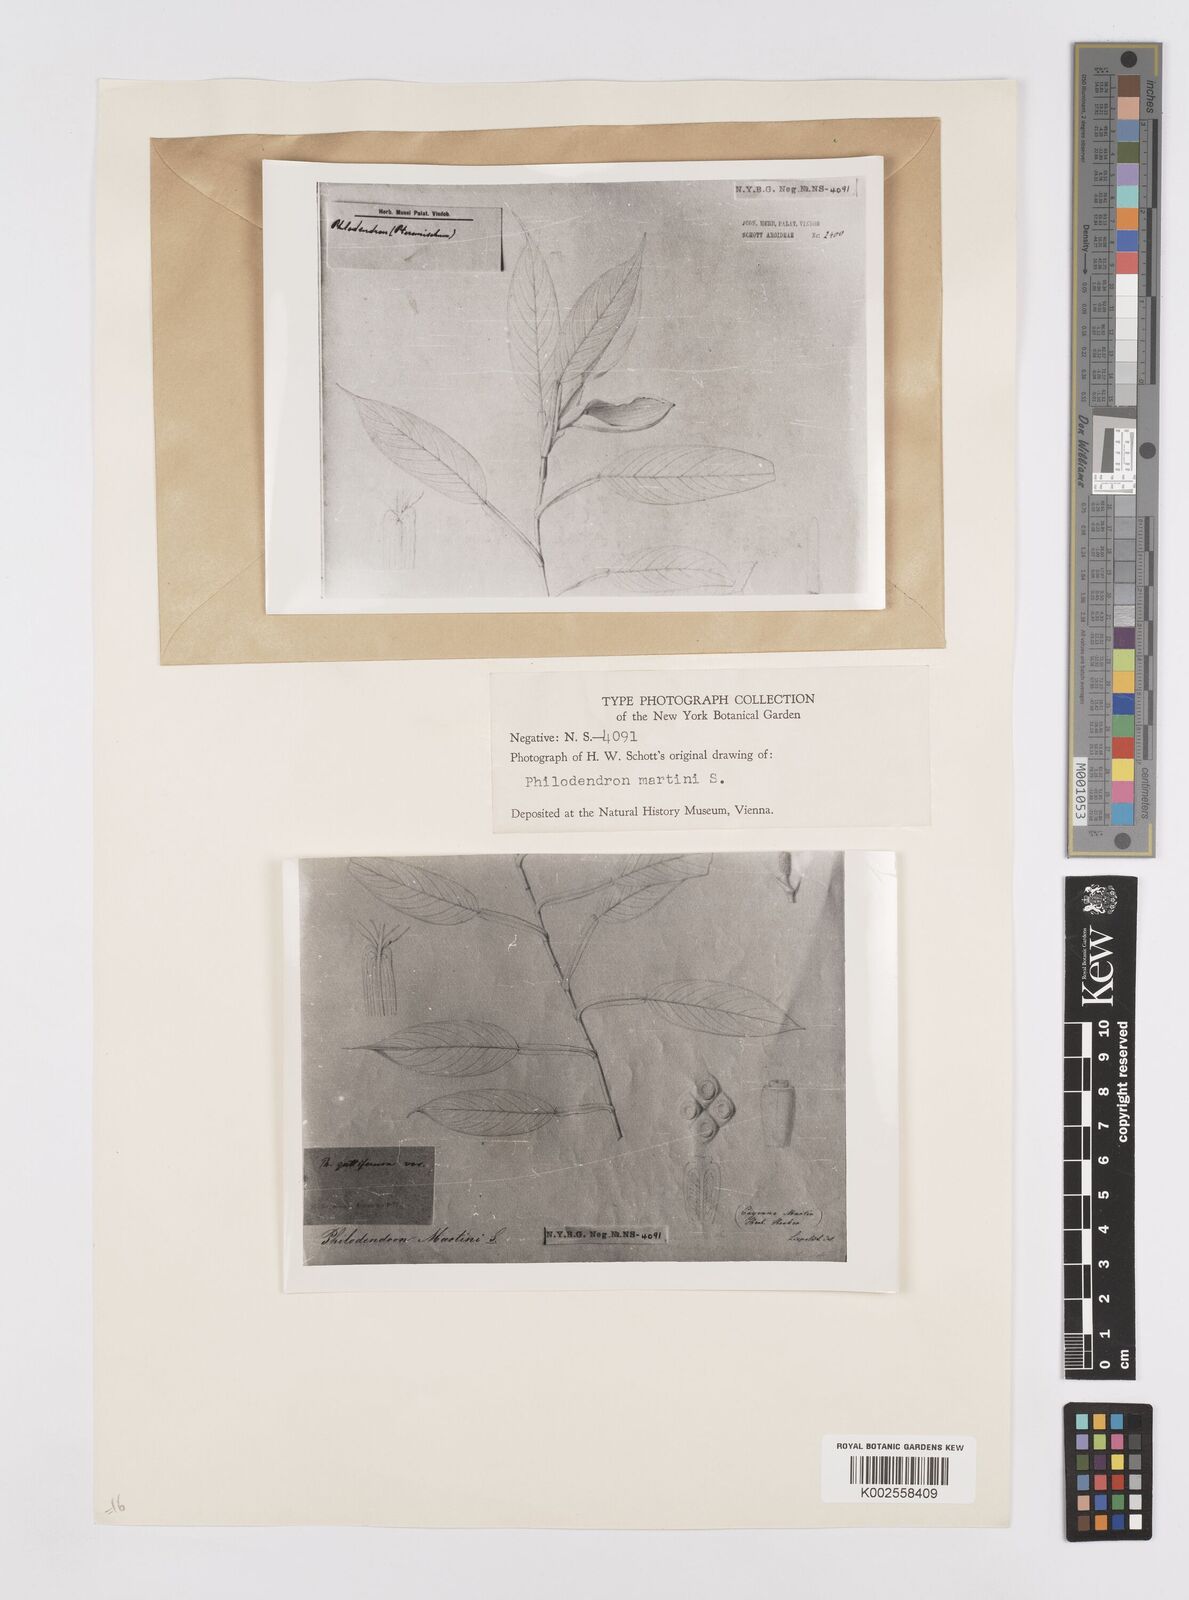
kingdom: Plantae
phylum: Tracheophyta
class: Liliopsida
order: Alismatales
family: Araceae
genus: Philodendron
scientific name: Philodendron rudgeanum
